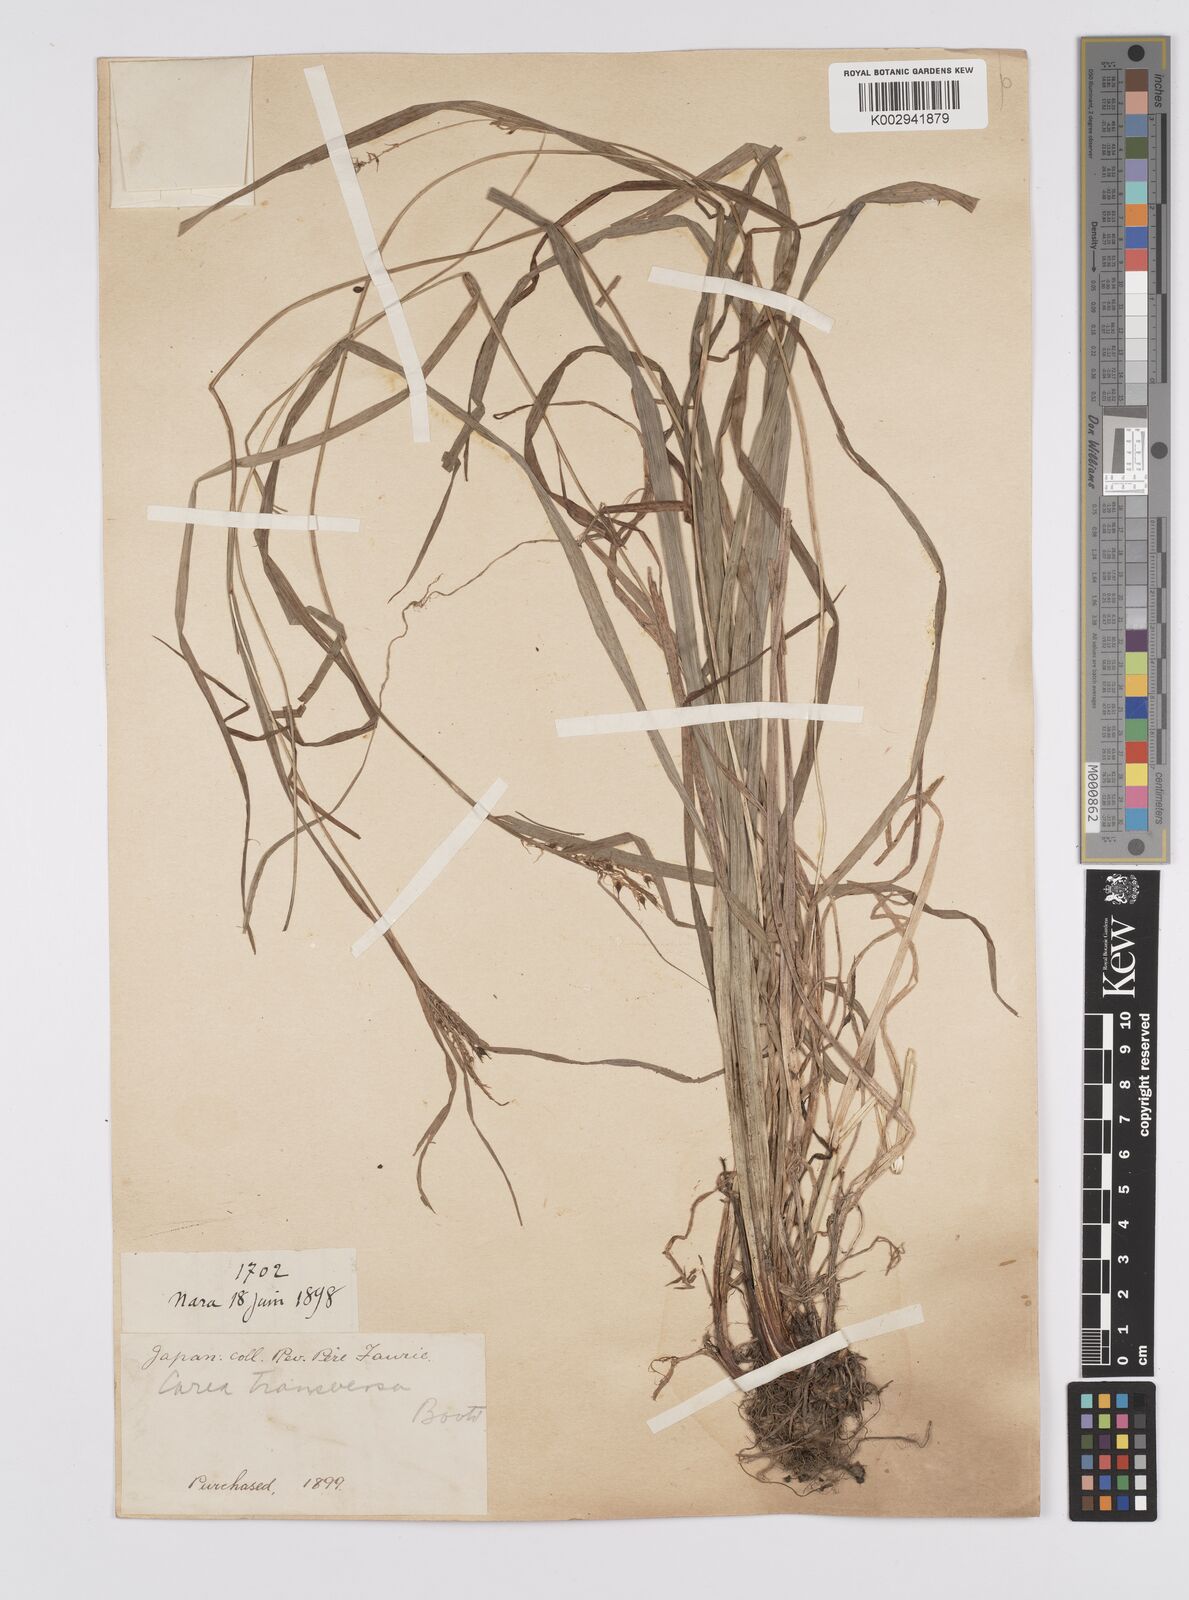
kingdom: Plantae
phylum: Tracheophyta
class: Liliopsida
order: Poales
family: Cyperaceae
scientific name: Cyperaceae
